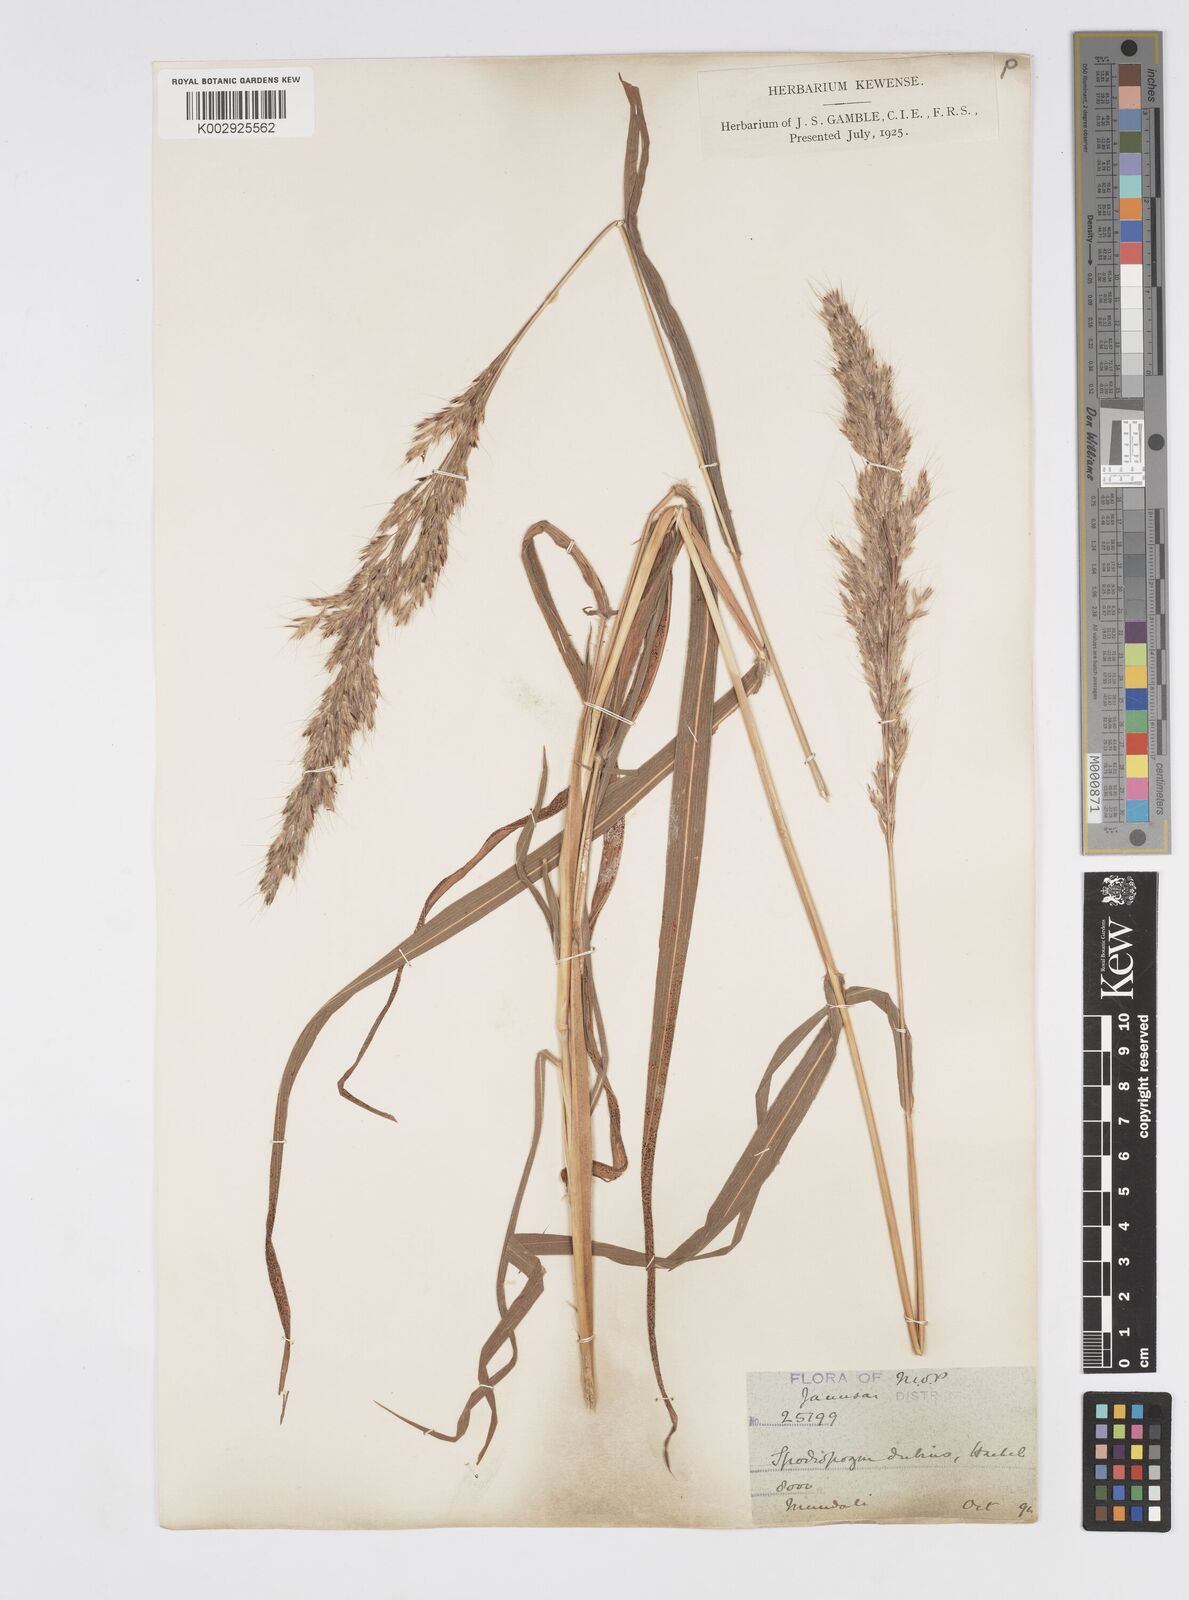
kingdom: Plantae
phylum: Tracheophyta
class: Liliopsida
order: Poales
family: Poaceae
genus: Spodiopogon
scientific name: Spodiopogon dubius
